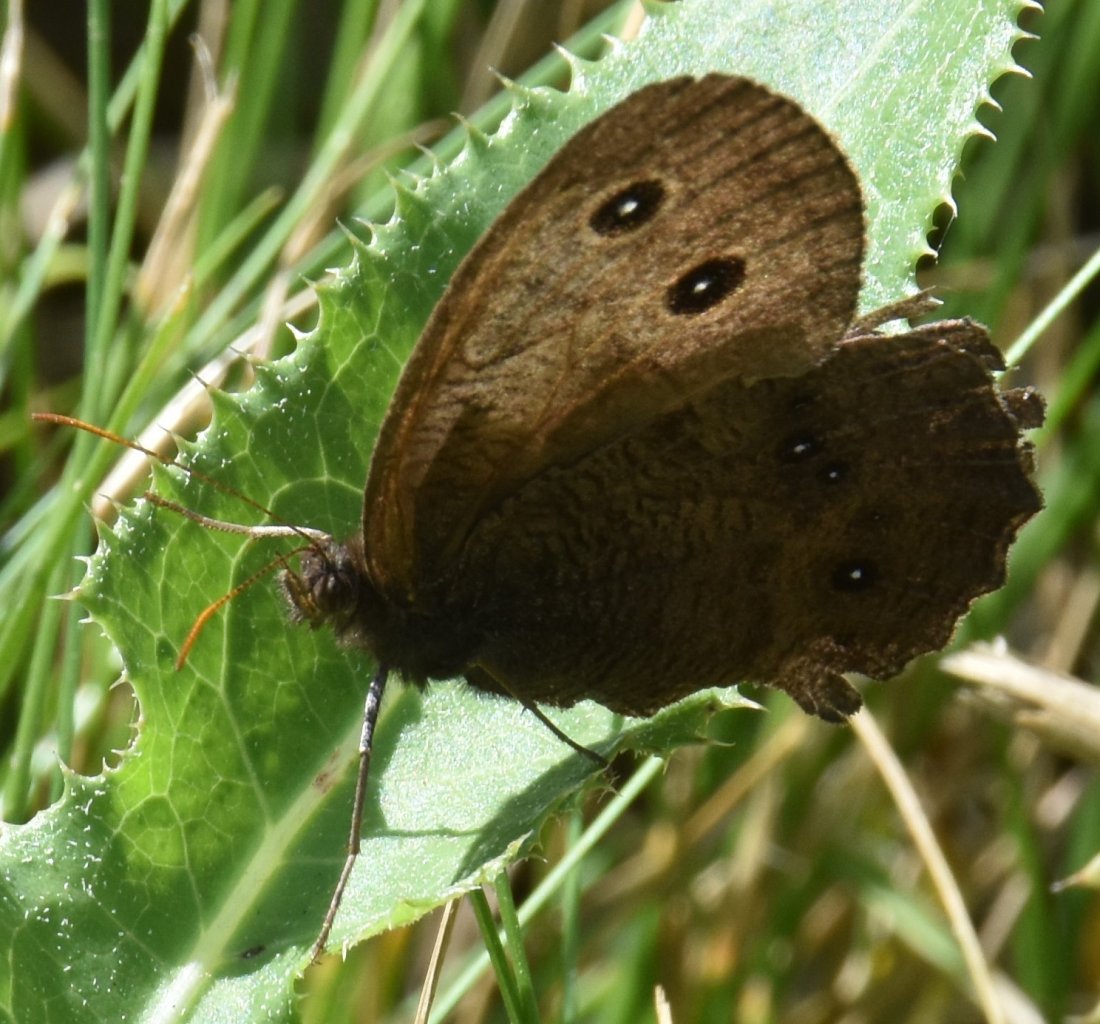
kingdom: Animalia
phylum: Arthropoda
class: Insecta
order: Lepidoptera
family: Nymphalidae
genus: Cercyonis
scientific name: Cercyonis pegala
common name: Common Wood-Nymph
